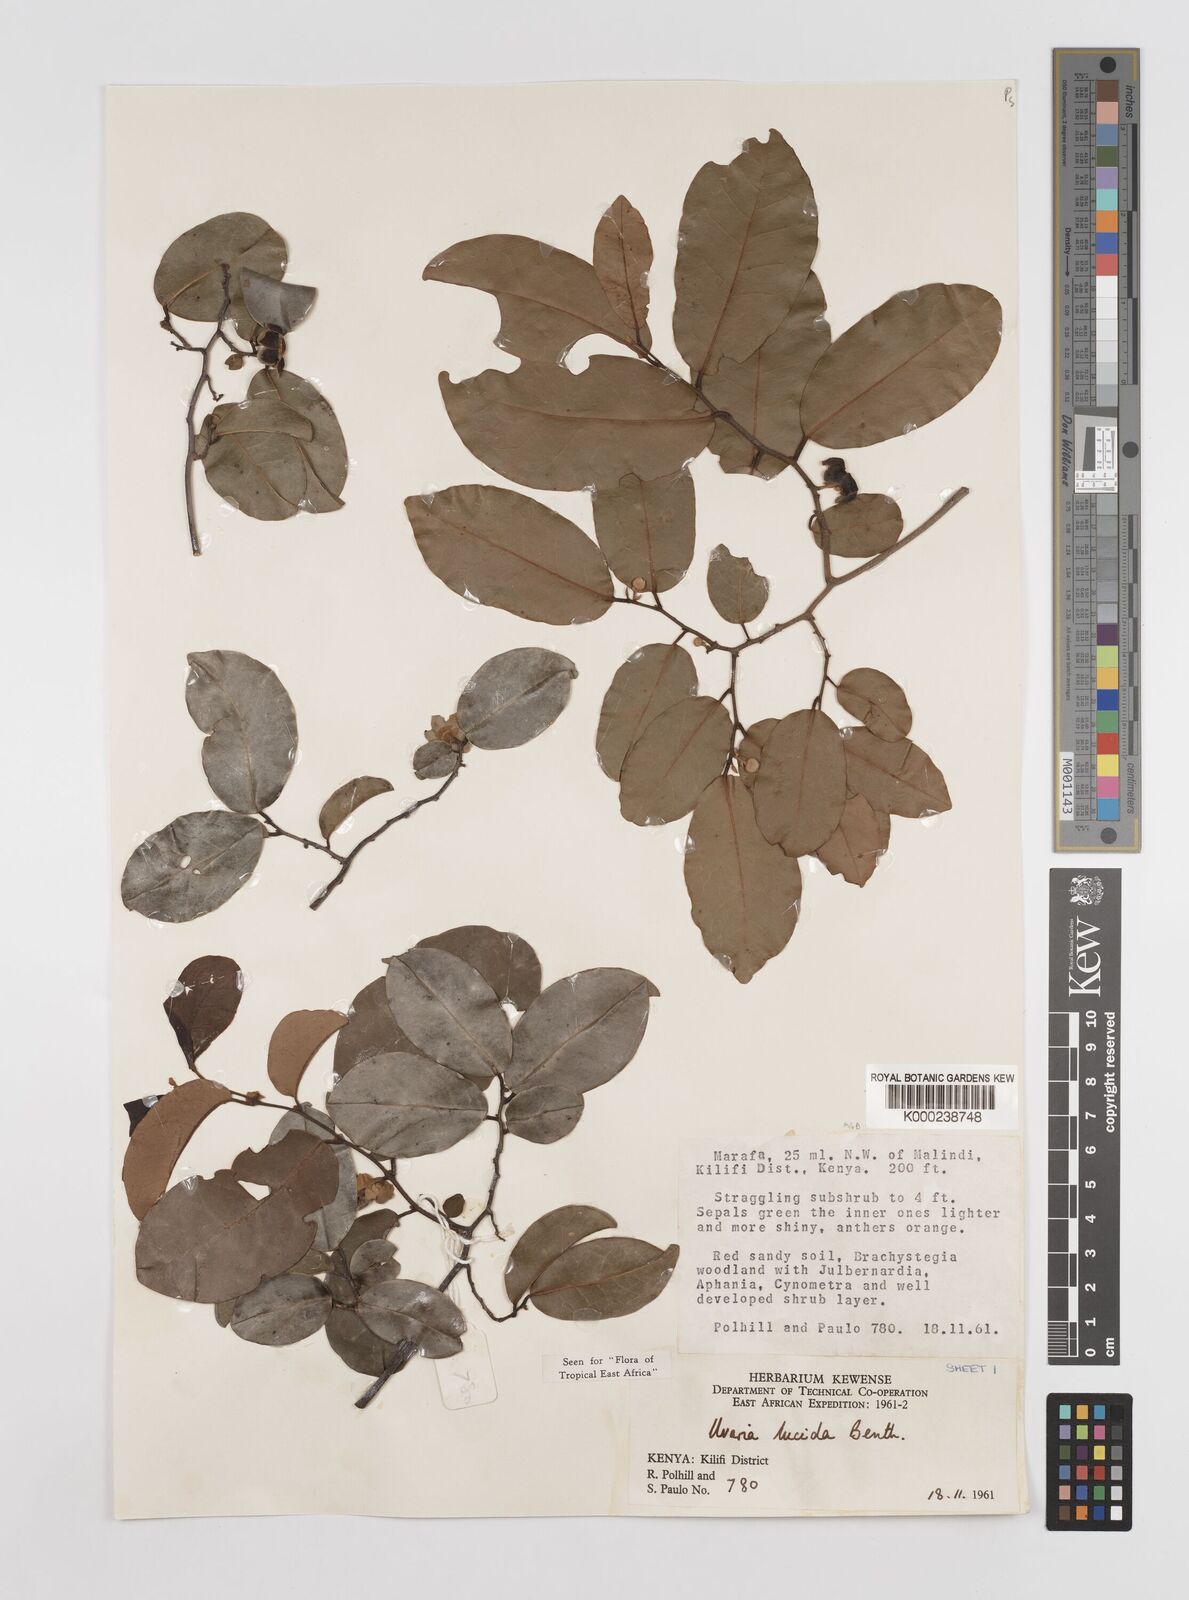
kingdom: Plantae
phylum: Tracheophyta
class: Magnoliopsida
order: Magnoliales
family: Annonaceae
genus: Uvaria
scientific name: Uvaria lucida
